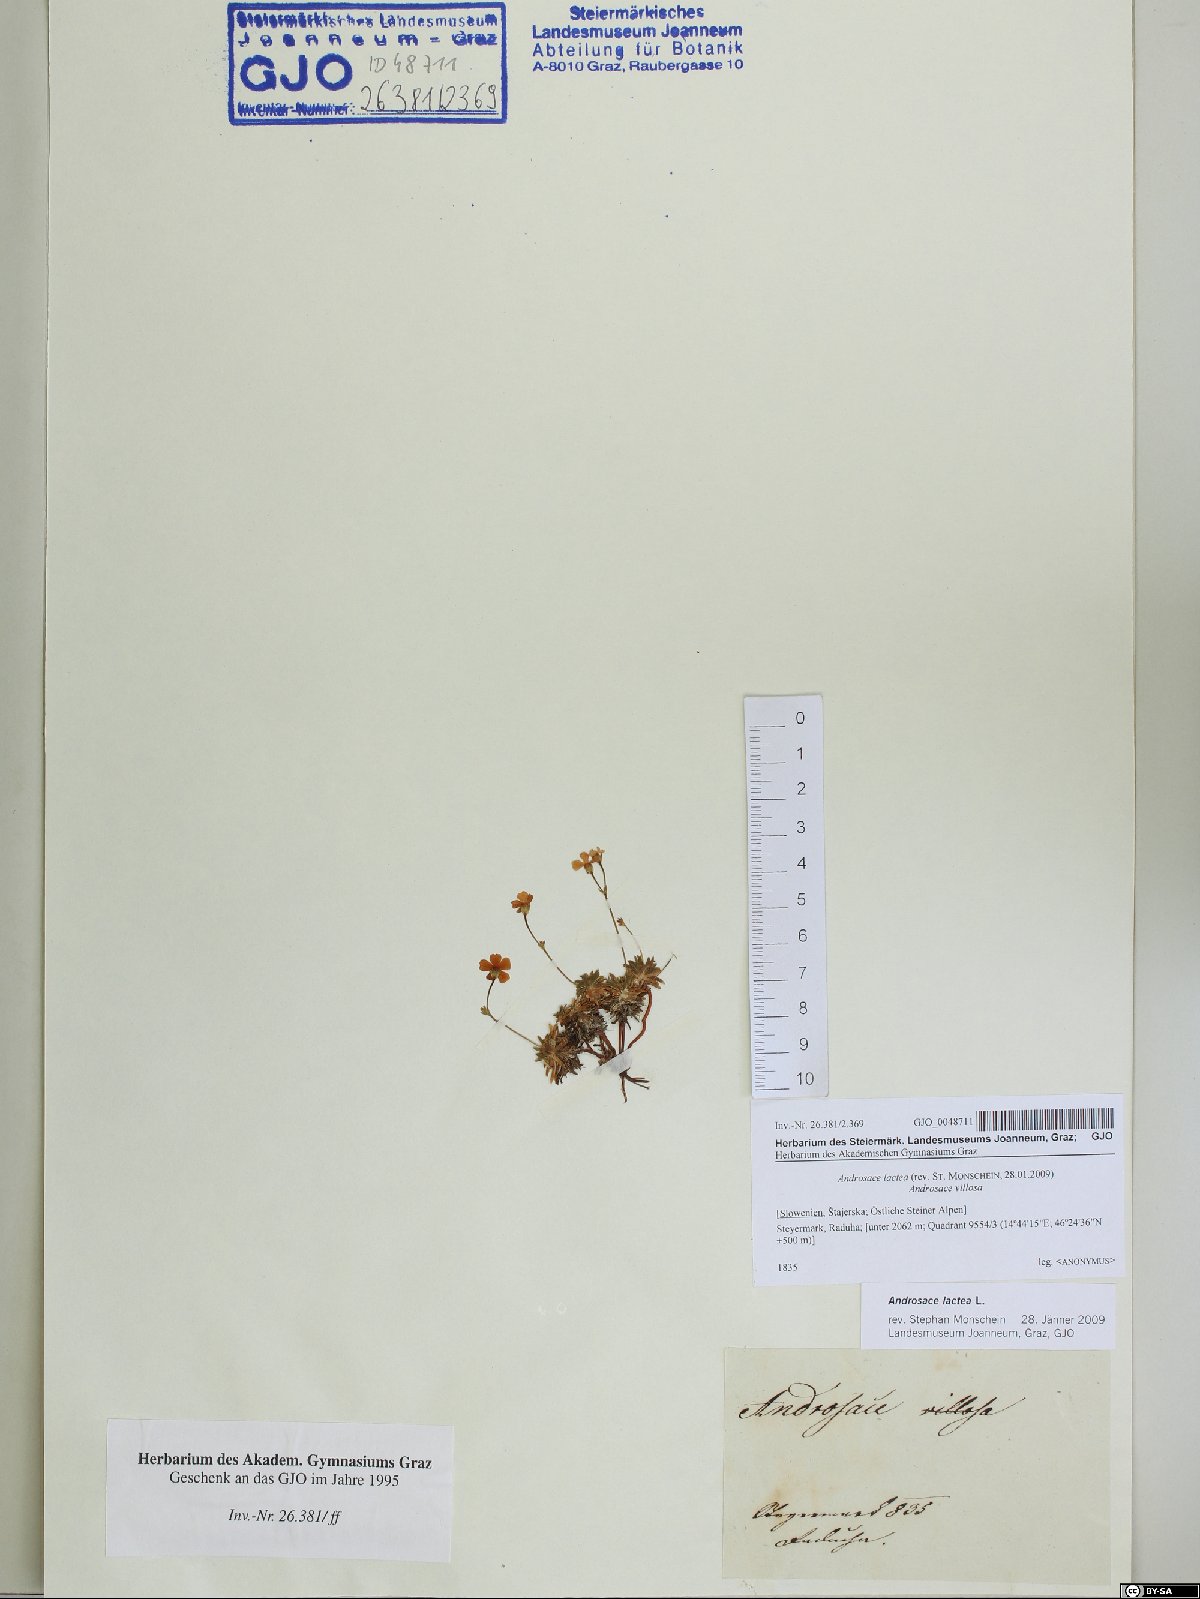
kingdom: Plantae
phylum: Tracheophyta
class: Magnoliopsida
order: Ericales
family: Primulaceae
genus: Androsace
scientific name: Androsace lactea
